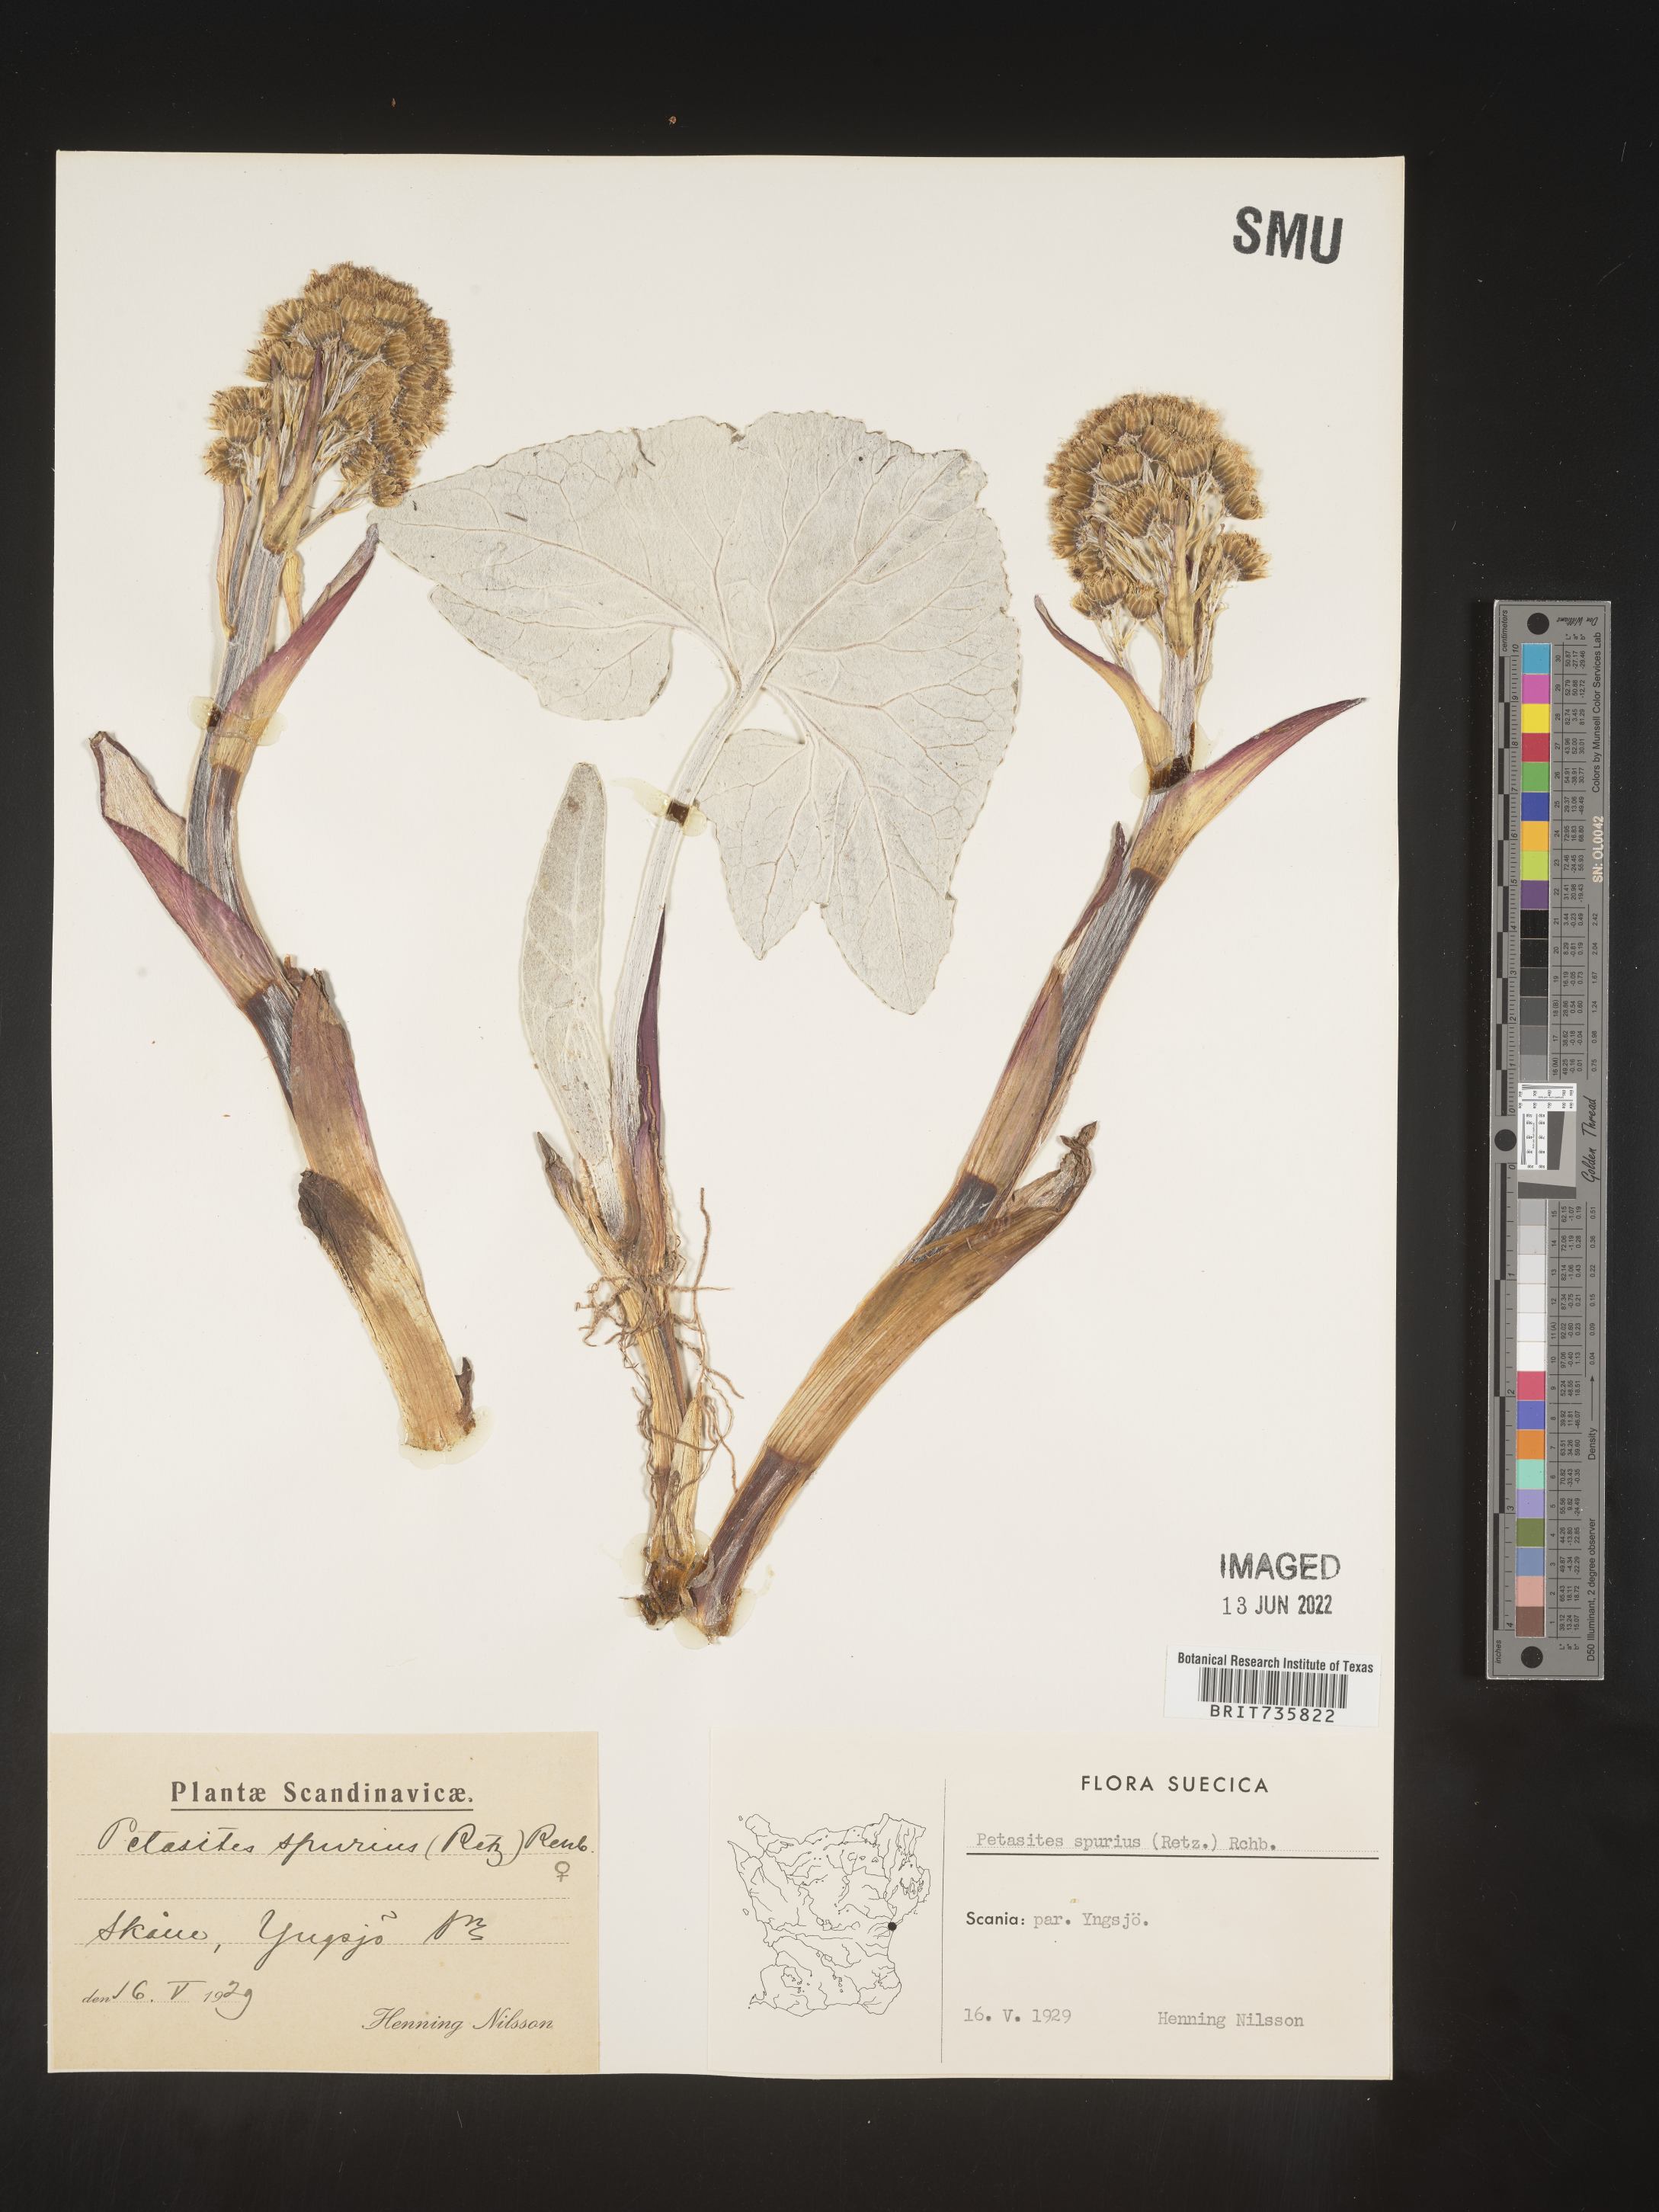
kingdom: Plantae
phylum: Tracheophyta
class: Magnoliopsida
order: Asterales
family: Asteraceae
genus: Petasites
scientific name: Petasites
